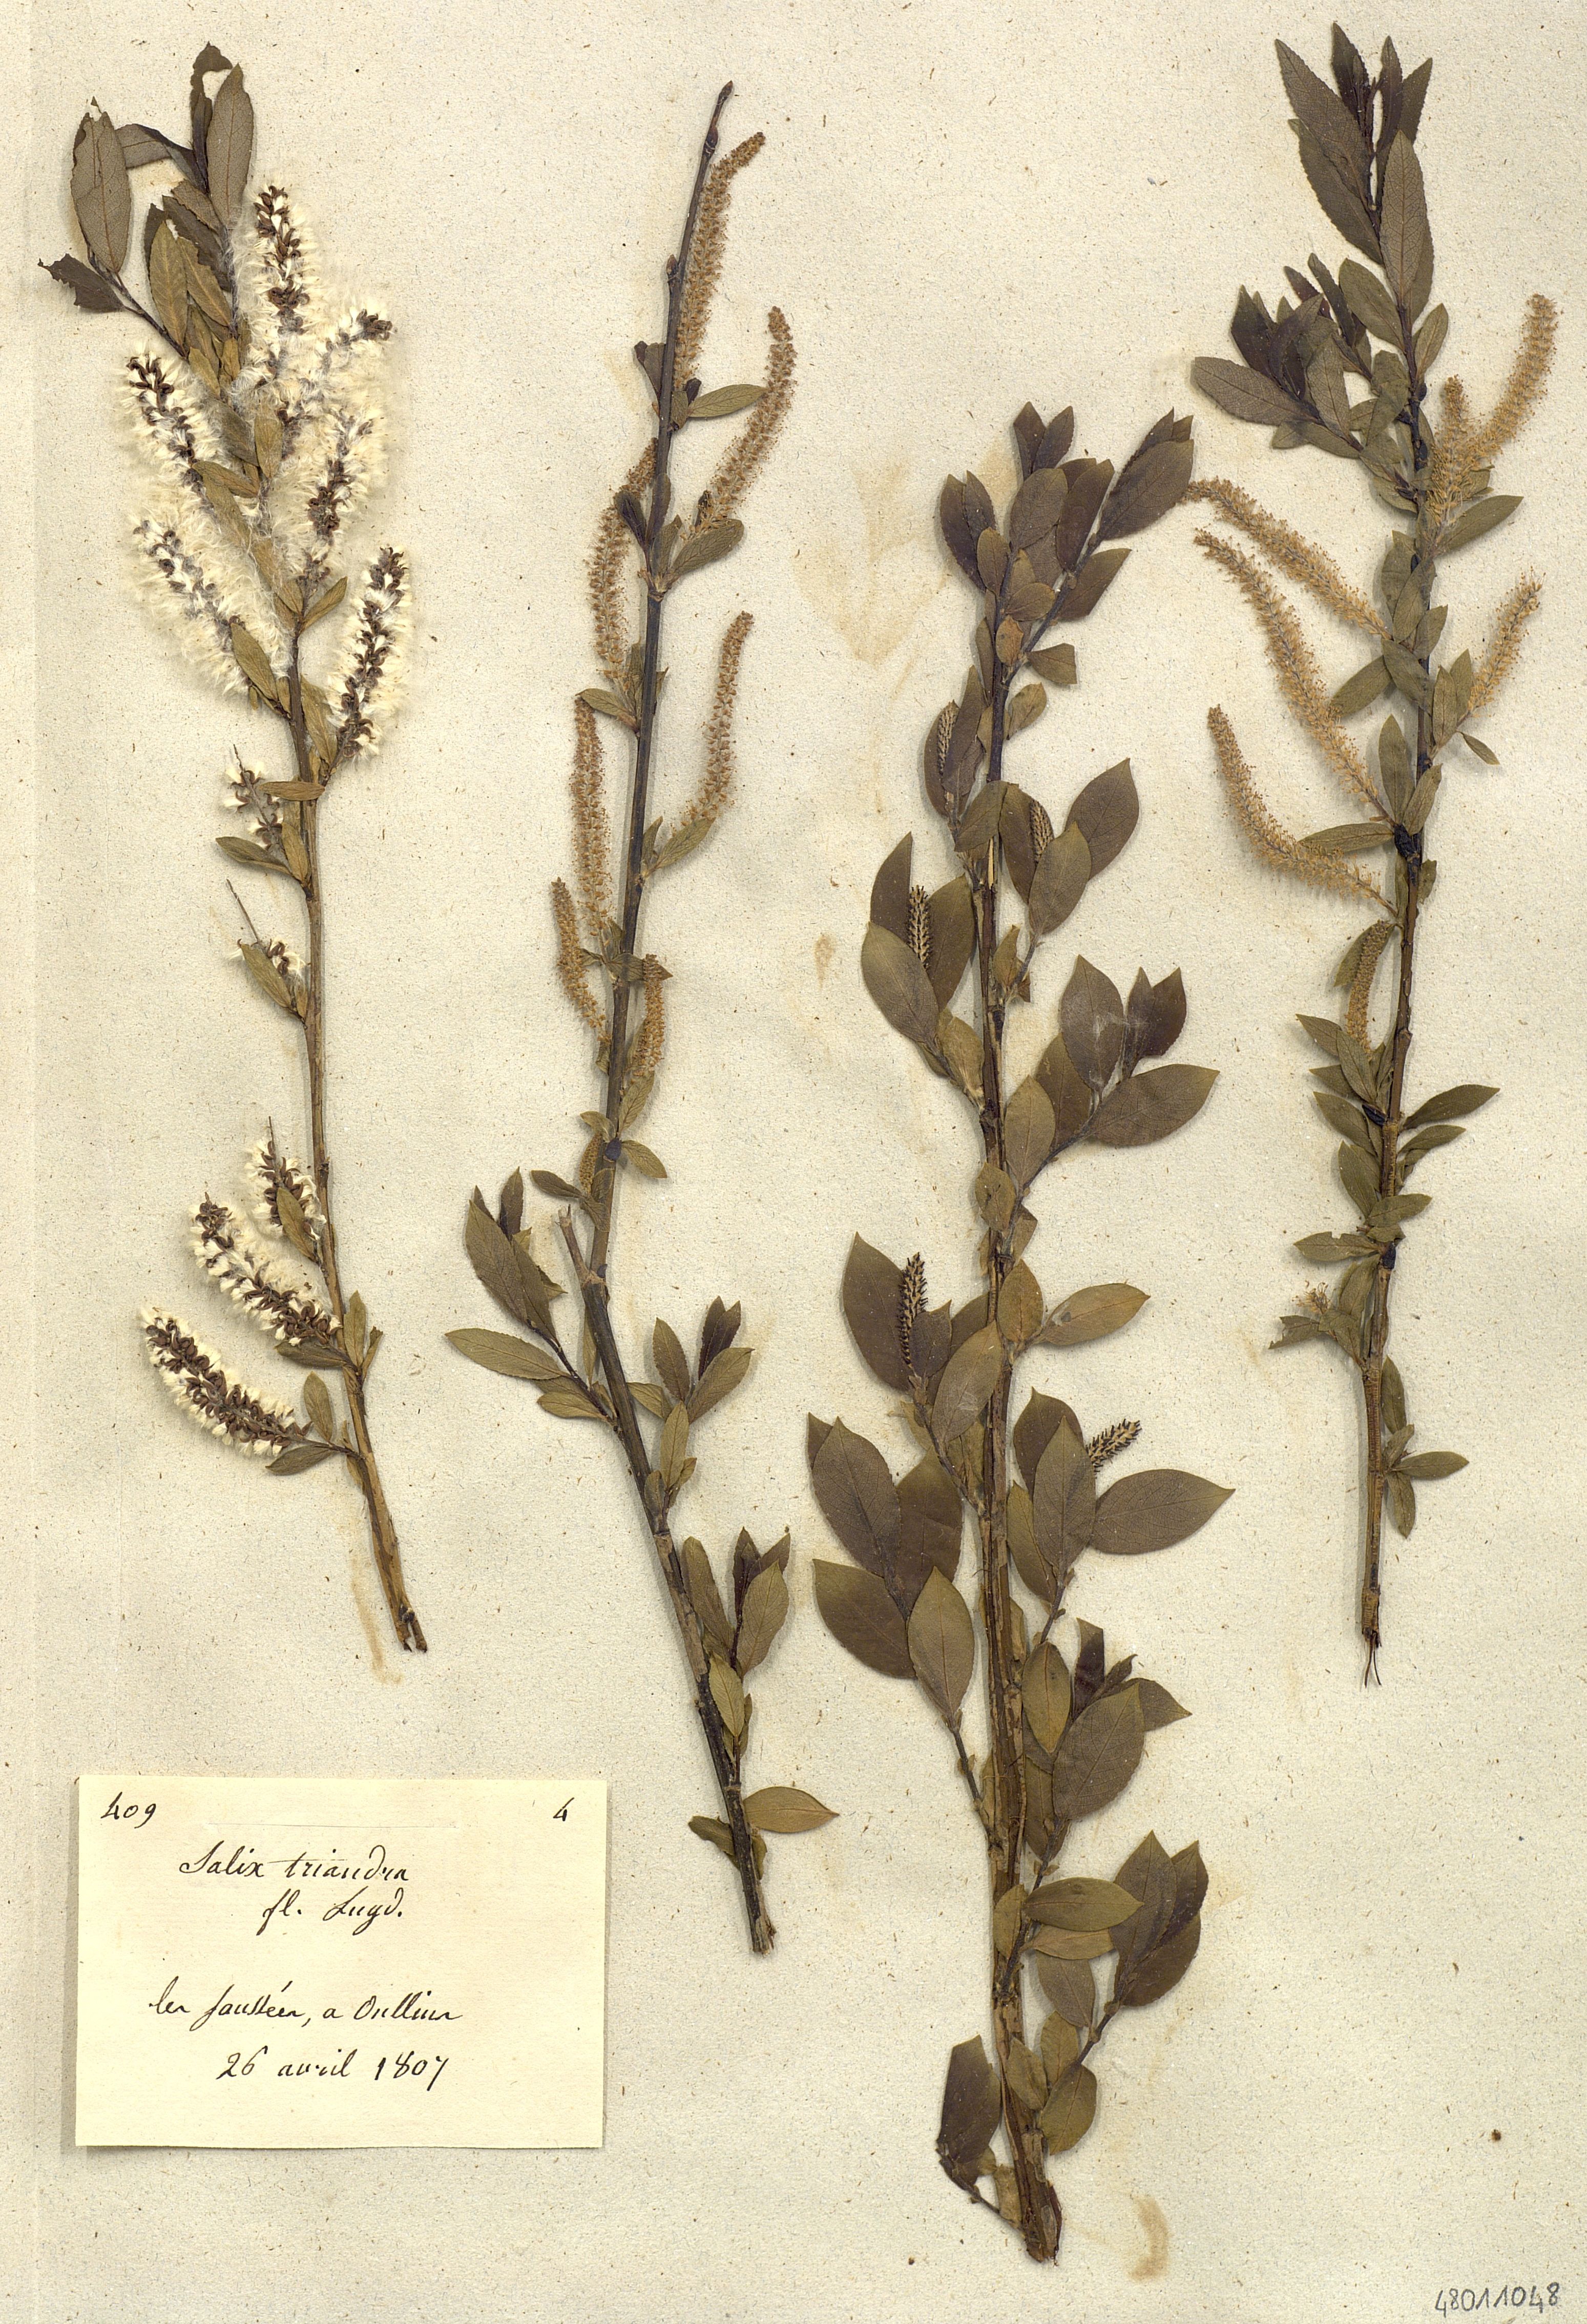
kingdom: Plantae
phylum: Tracheophyta
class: Magnoliopsida
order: Malpighiales
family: Salicaceae
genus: Salix
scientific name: Salix triandra
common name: Almond willow
